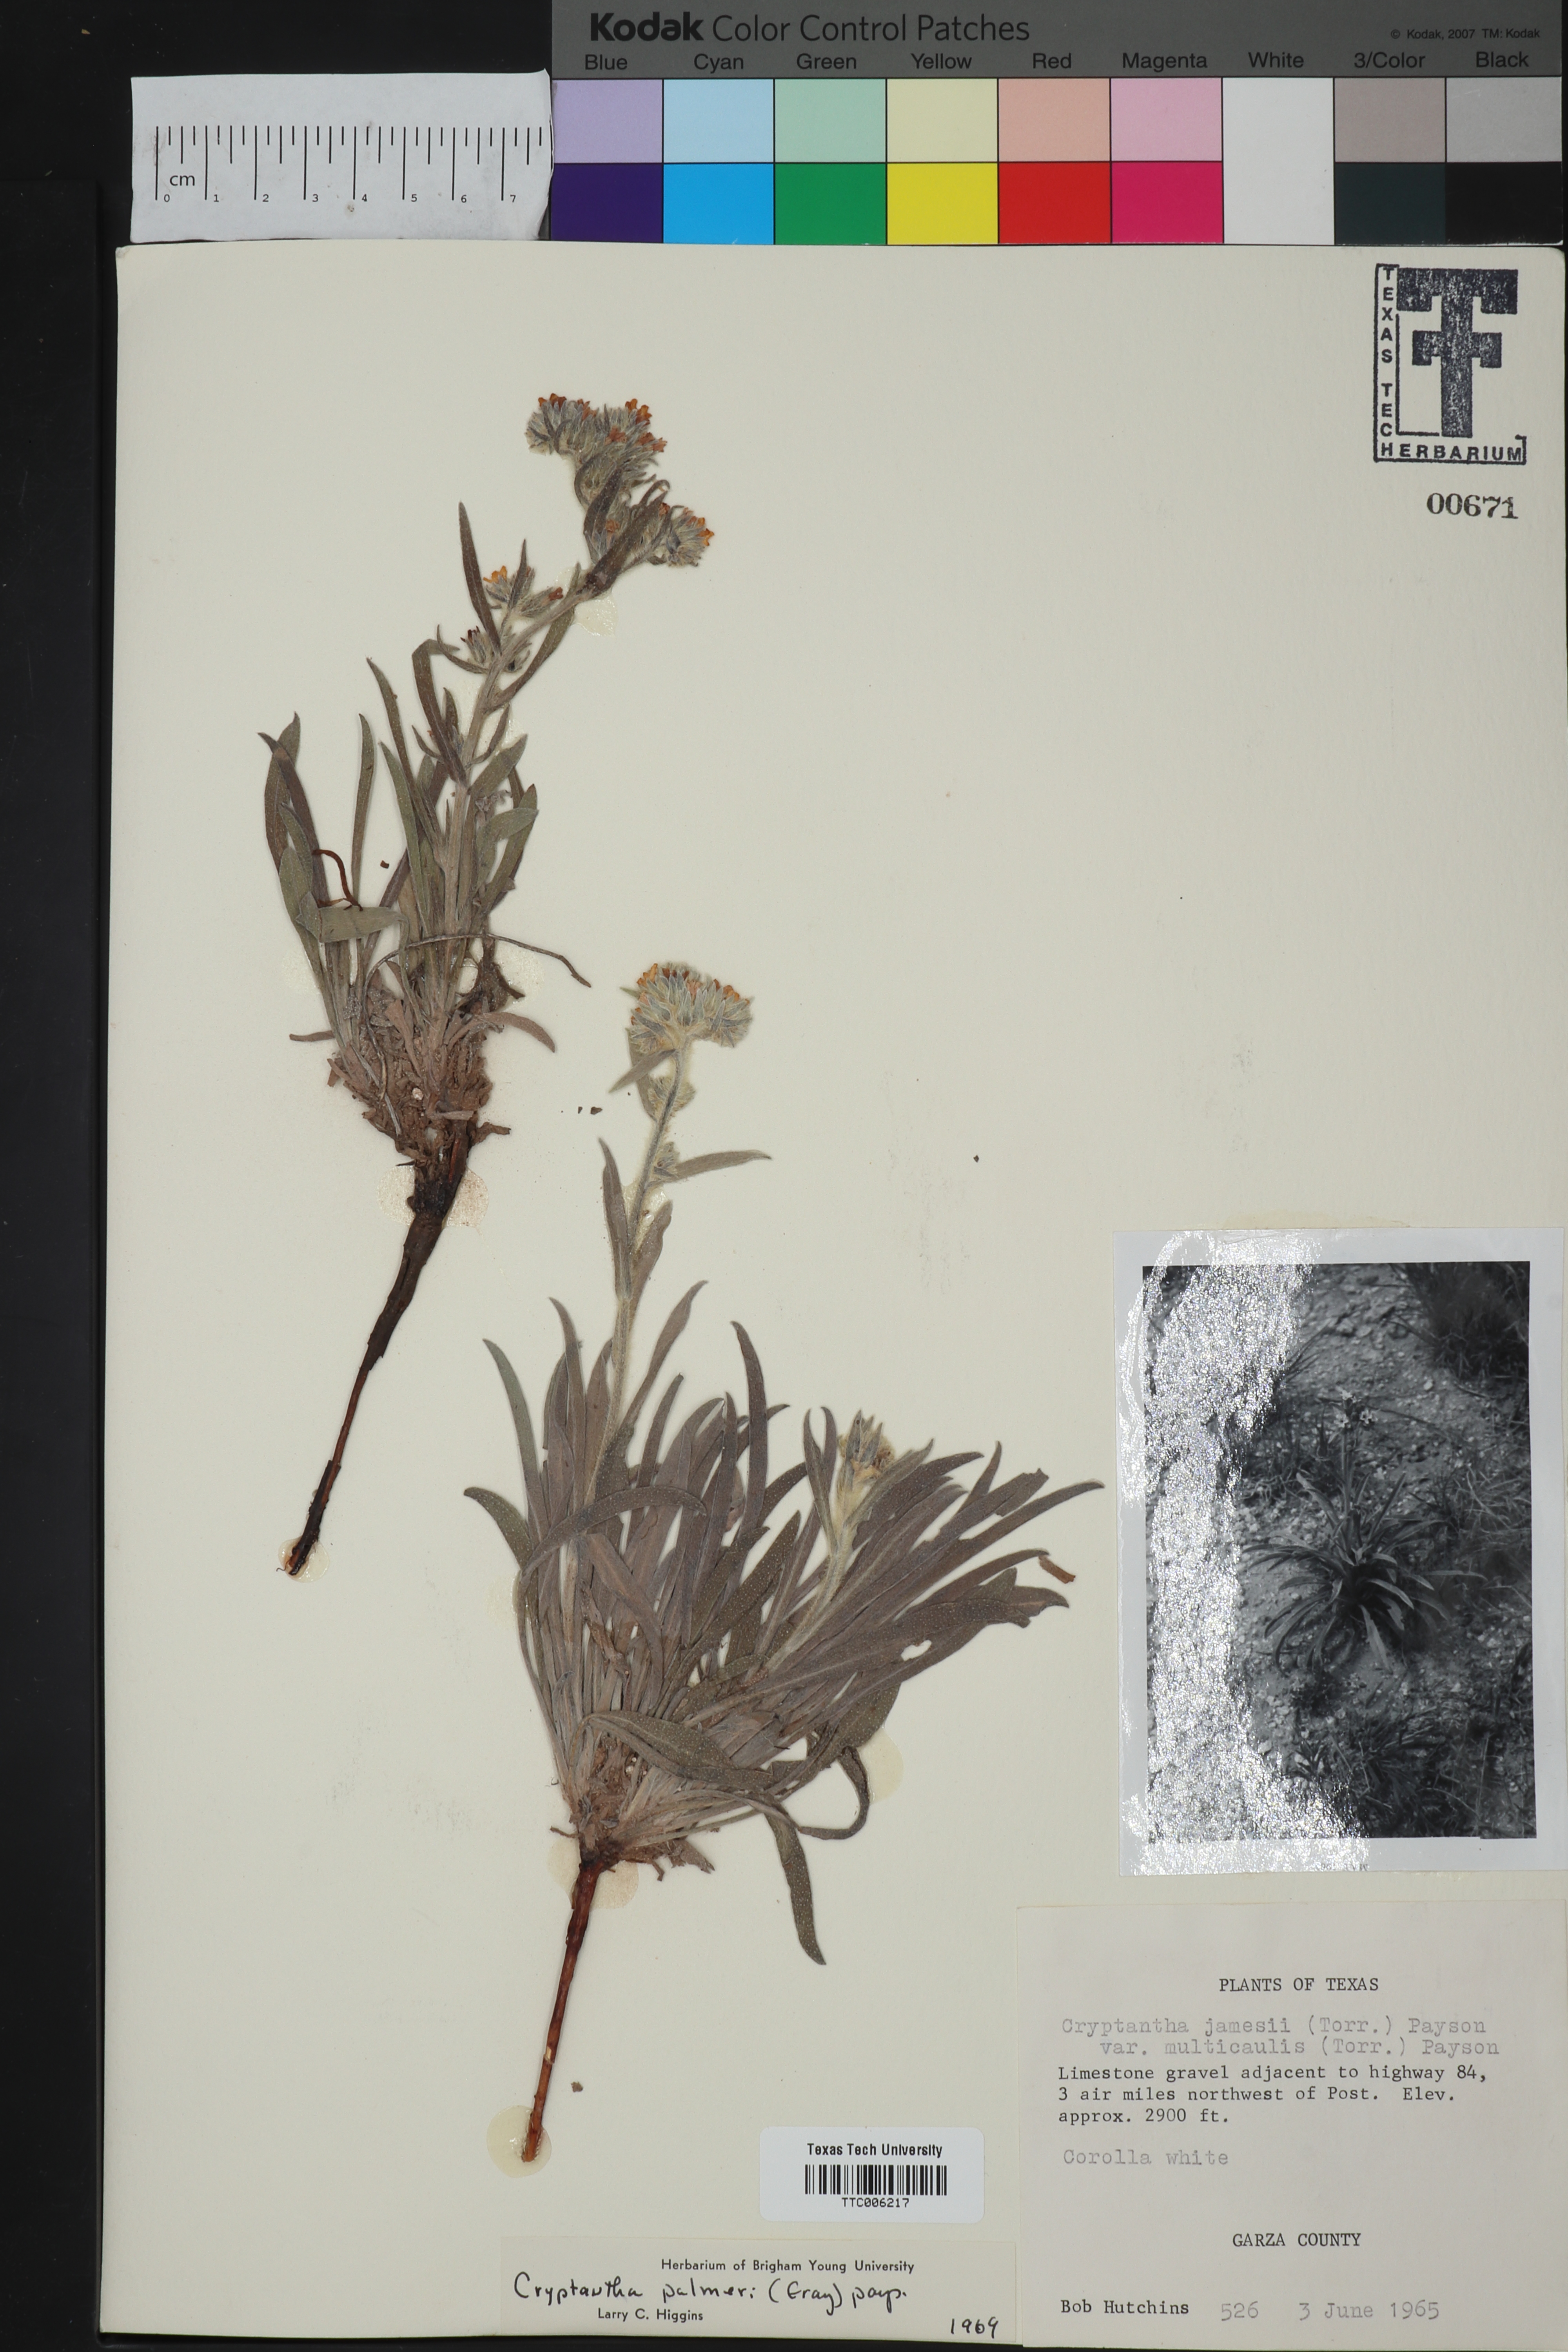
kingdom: Plantae
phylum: Tracheophyta
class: Magnoliopsida
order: Boraginales
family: Boraginaceae
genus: Oreocarya
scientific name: Oreocarya palmeri
